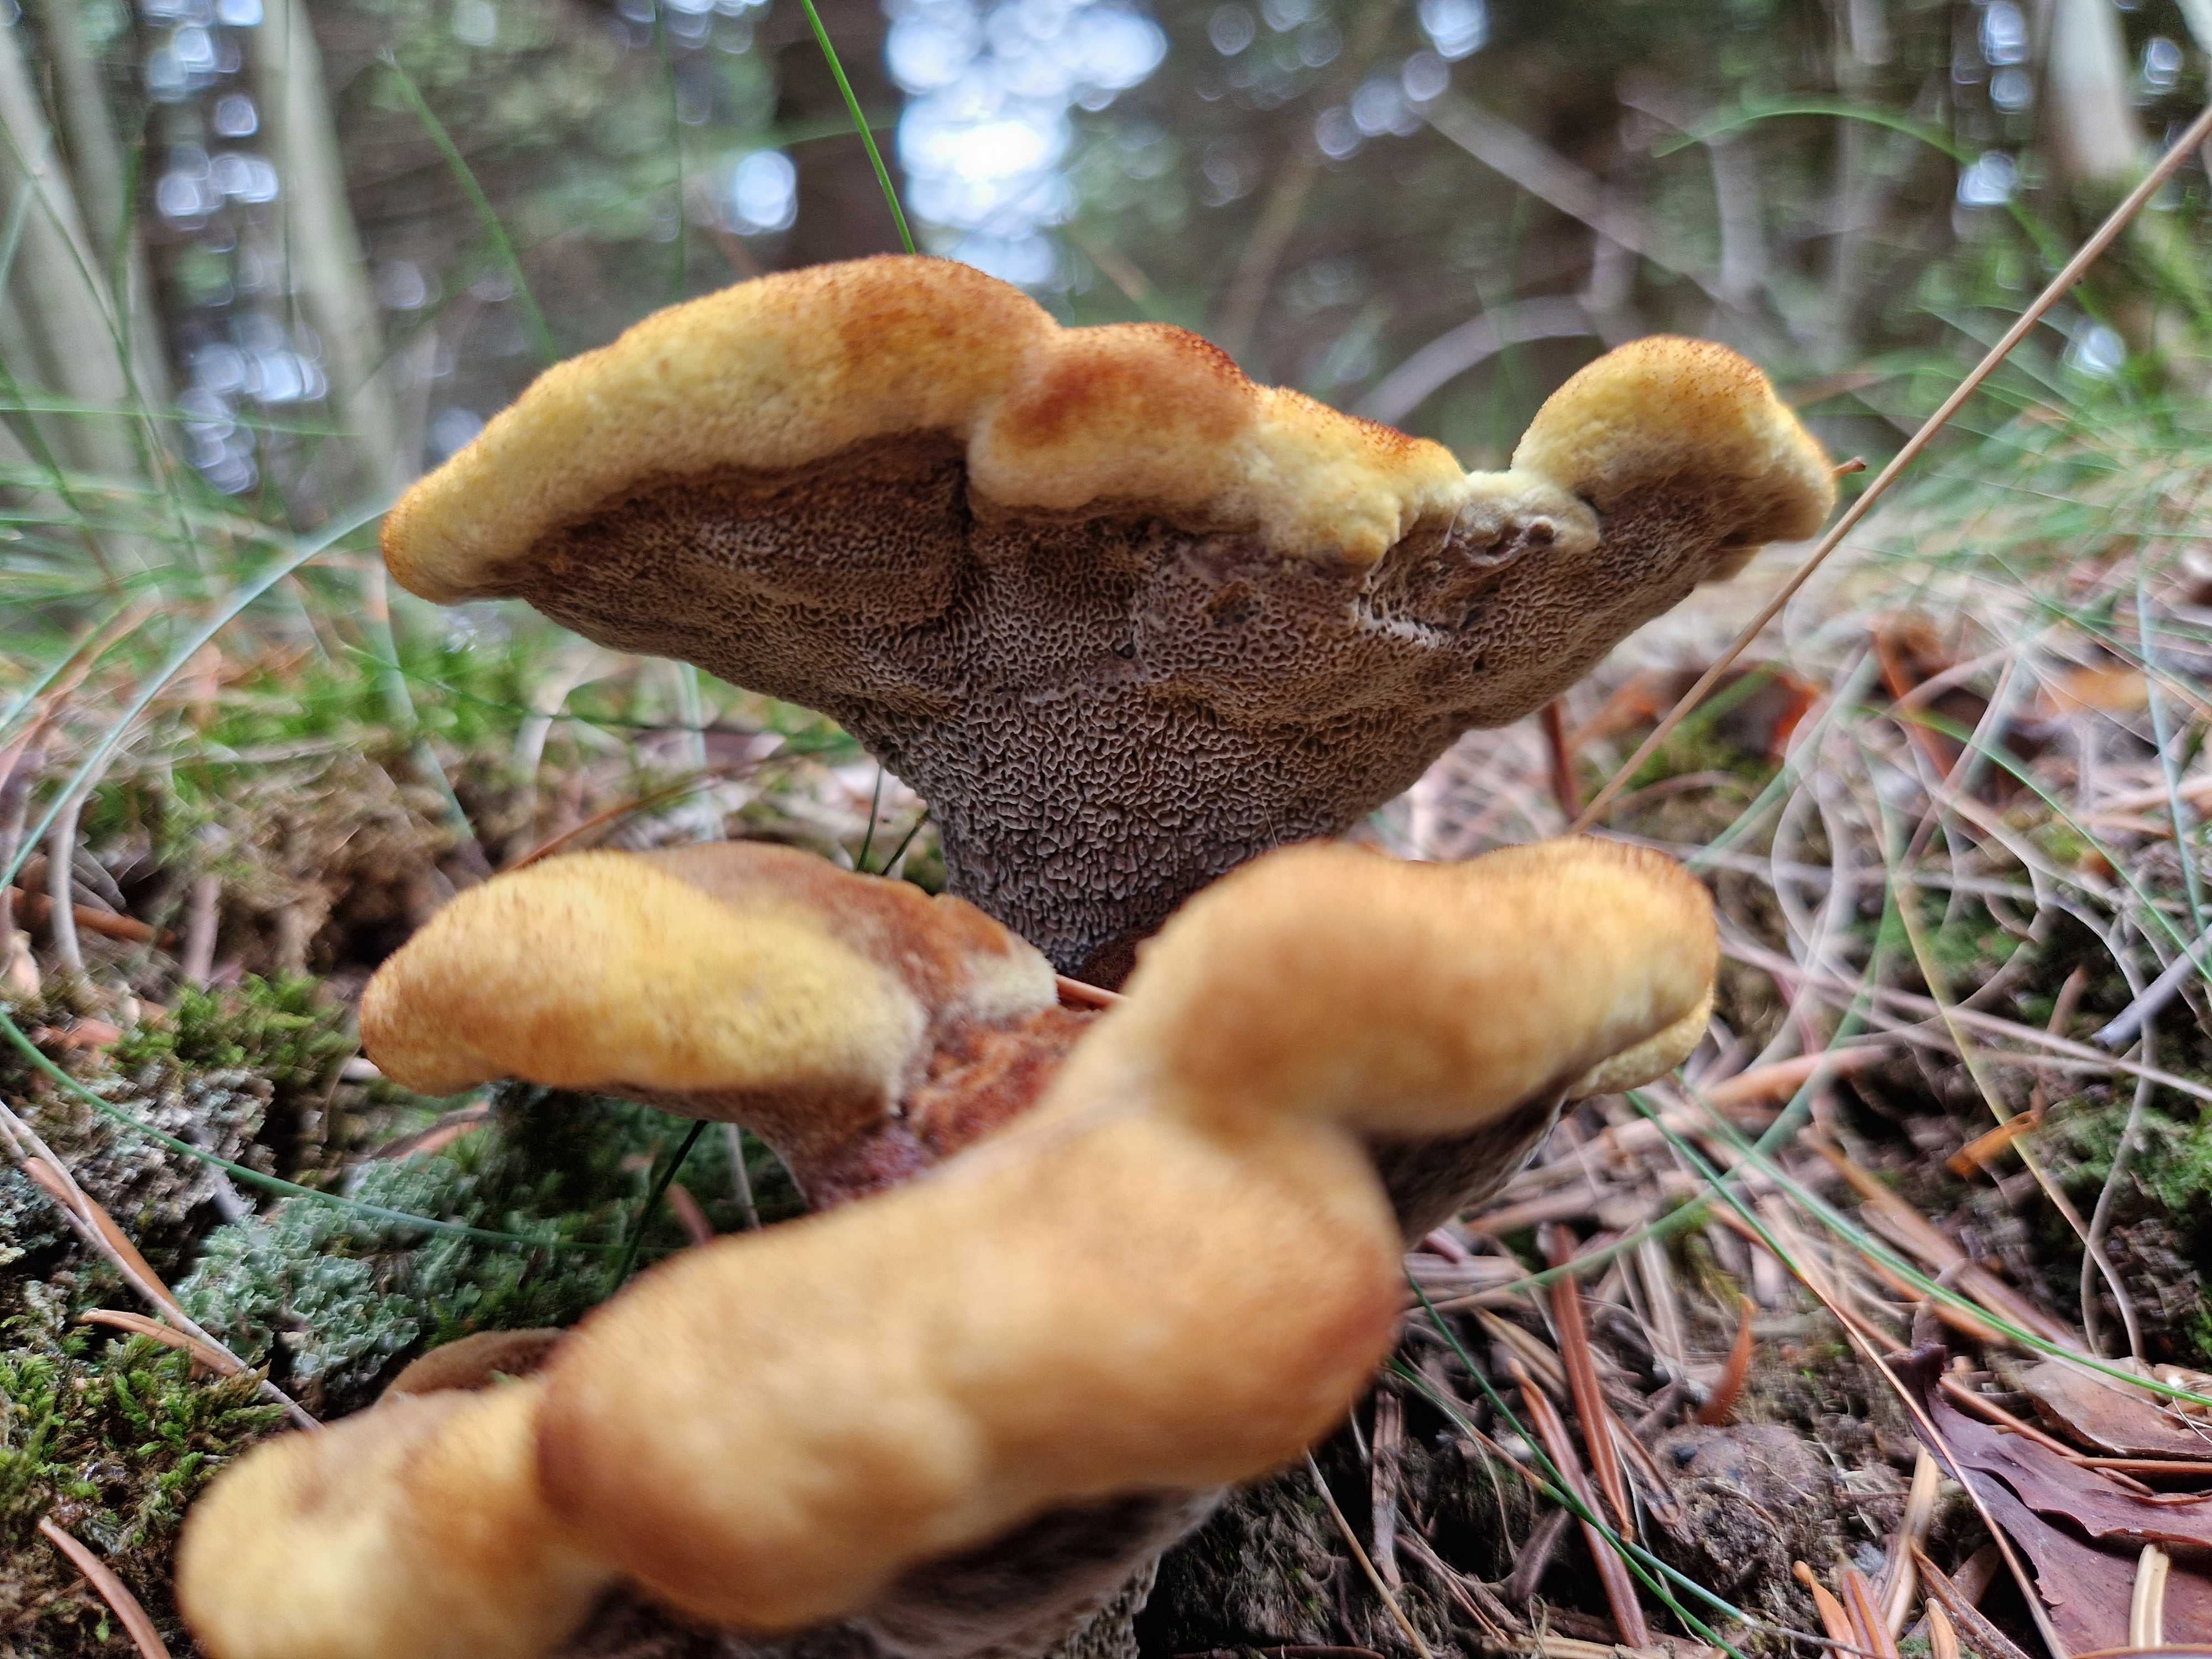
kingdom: Fungi
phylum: Basidiomycota
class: Agaricomycetes
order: Polyporales
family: Laetiporaceae
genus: Phaeolus
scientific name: Phaeolus schweinitzii
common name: brunporesvamp
